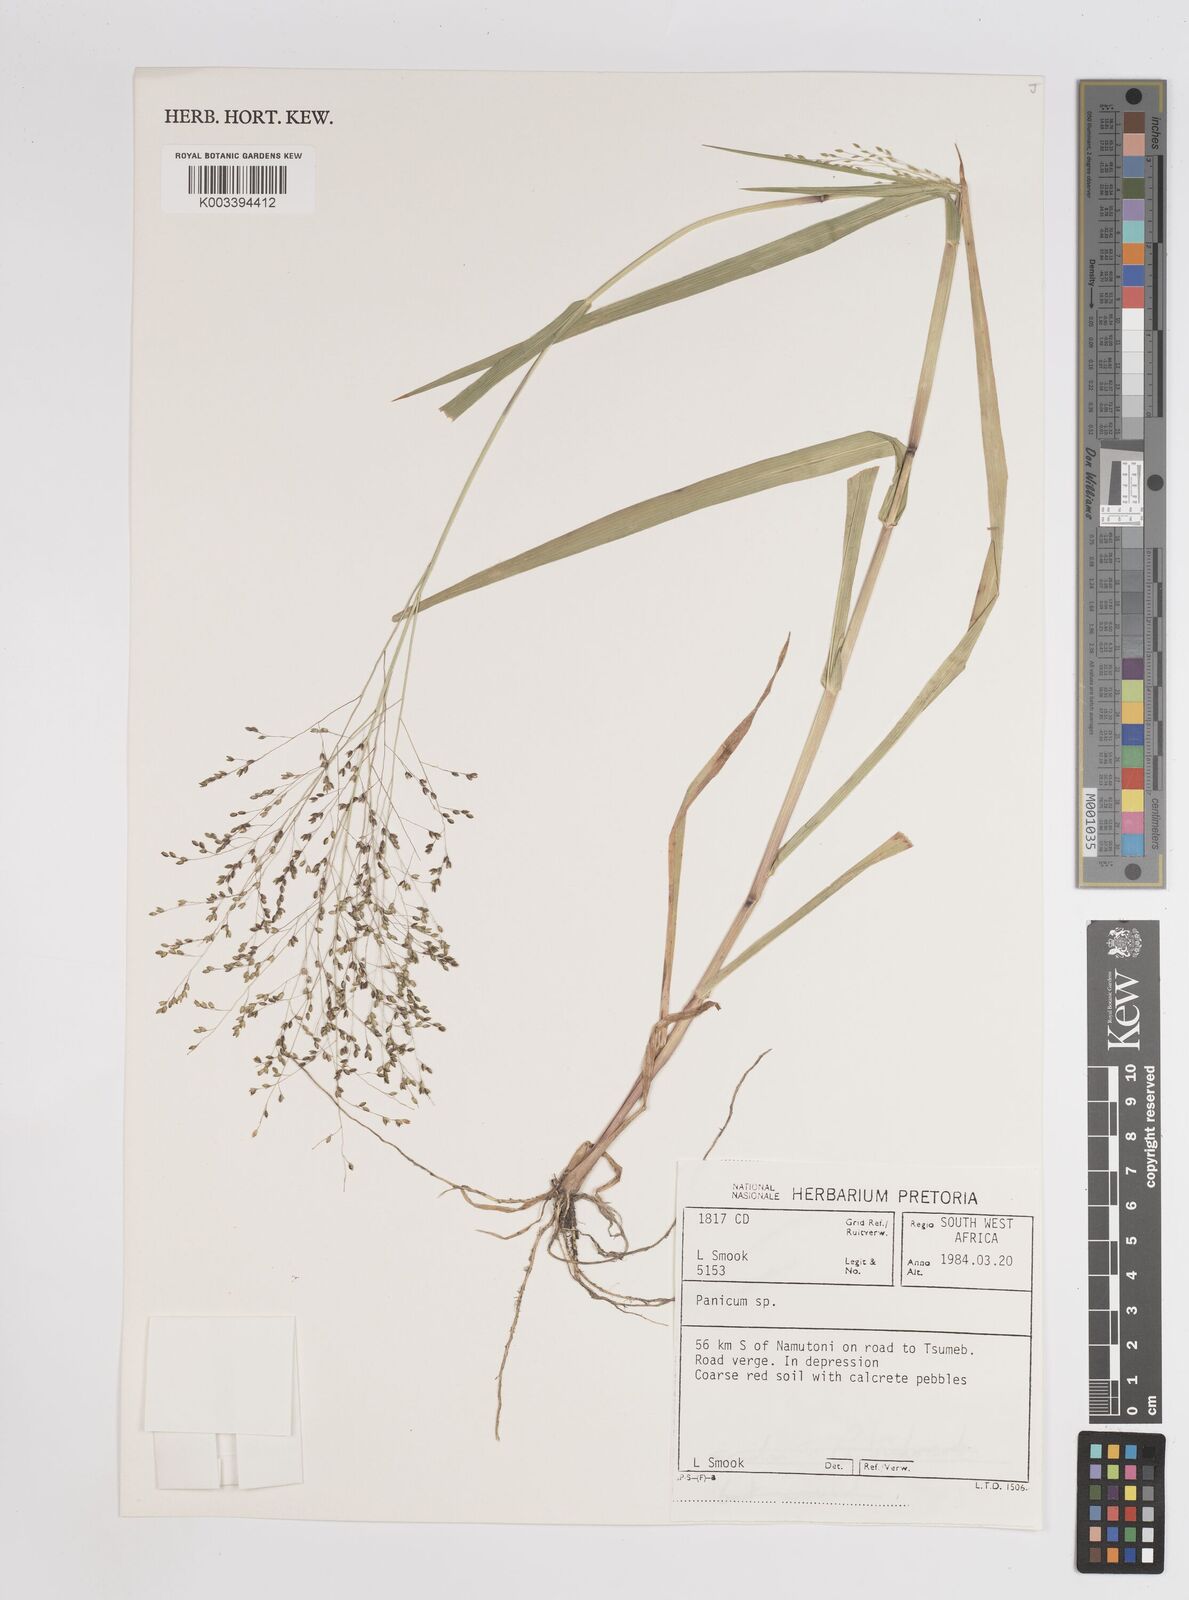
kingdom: Plantae
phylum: Tracheophyta
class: Liliopsida
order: Poales
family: Poaceae
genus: Panicum
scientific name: Panicum simulans
